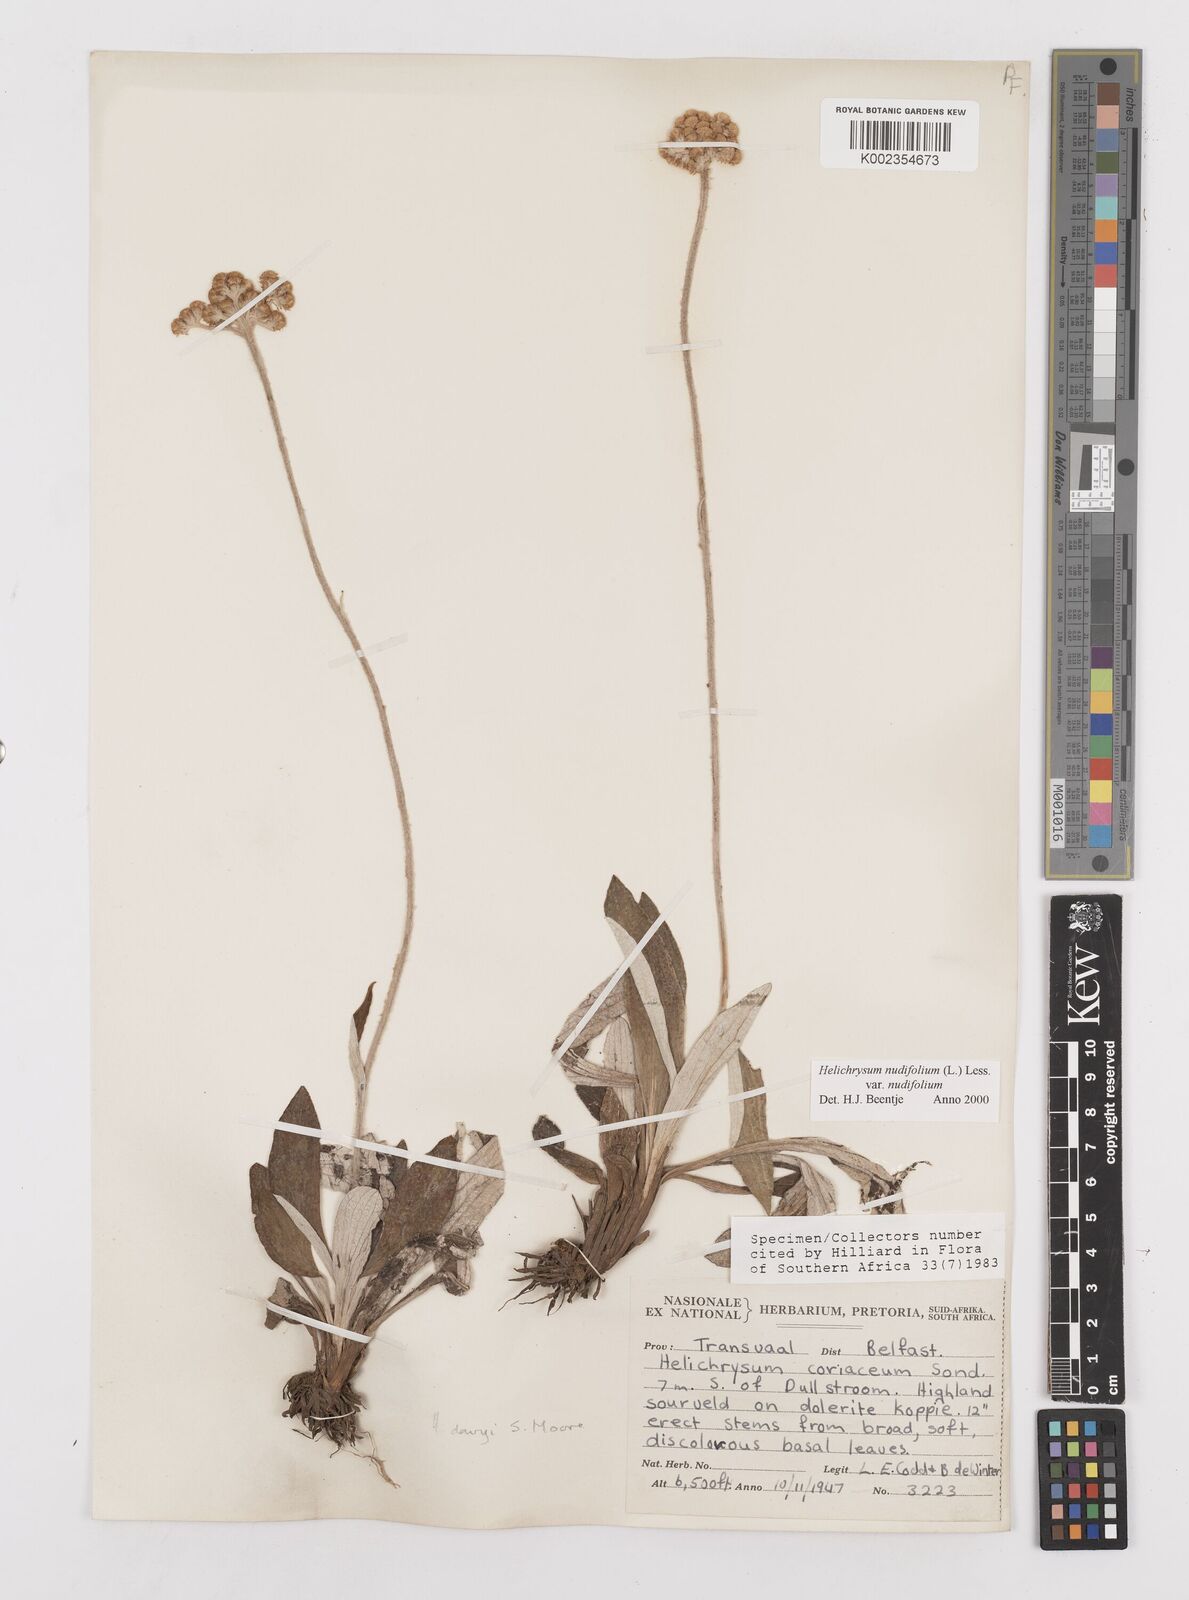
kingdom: Plantae
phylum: Tracheophyta
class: Magnoliopsida
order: Asterales
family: Asteraceae
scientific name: Asteraceae
